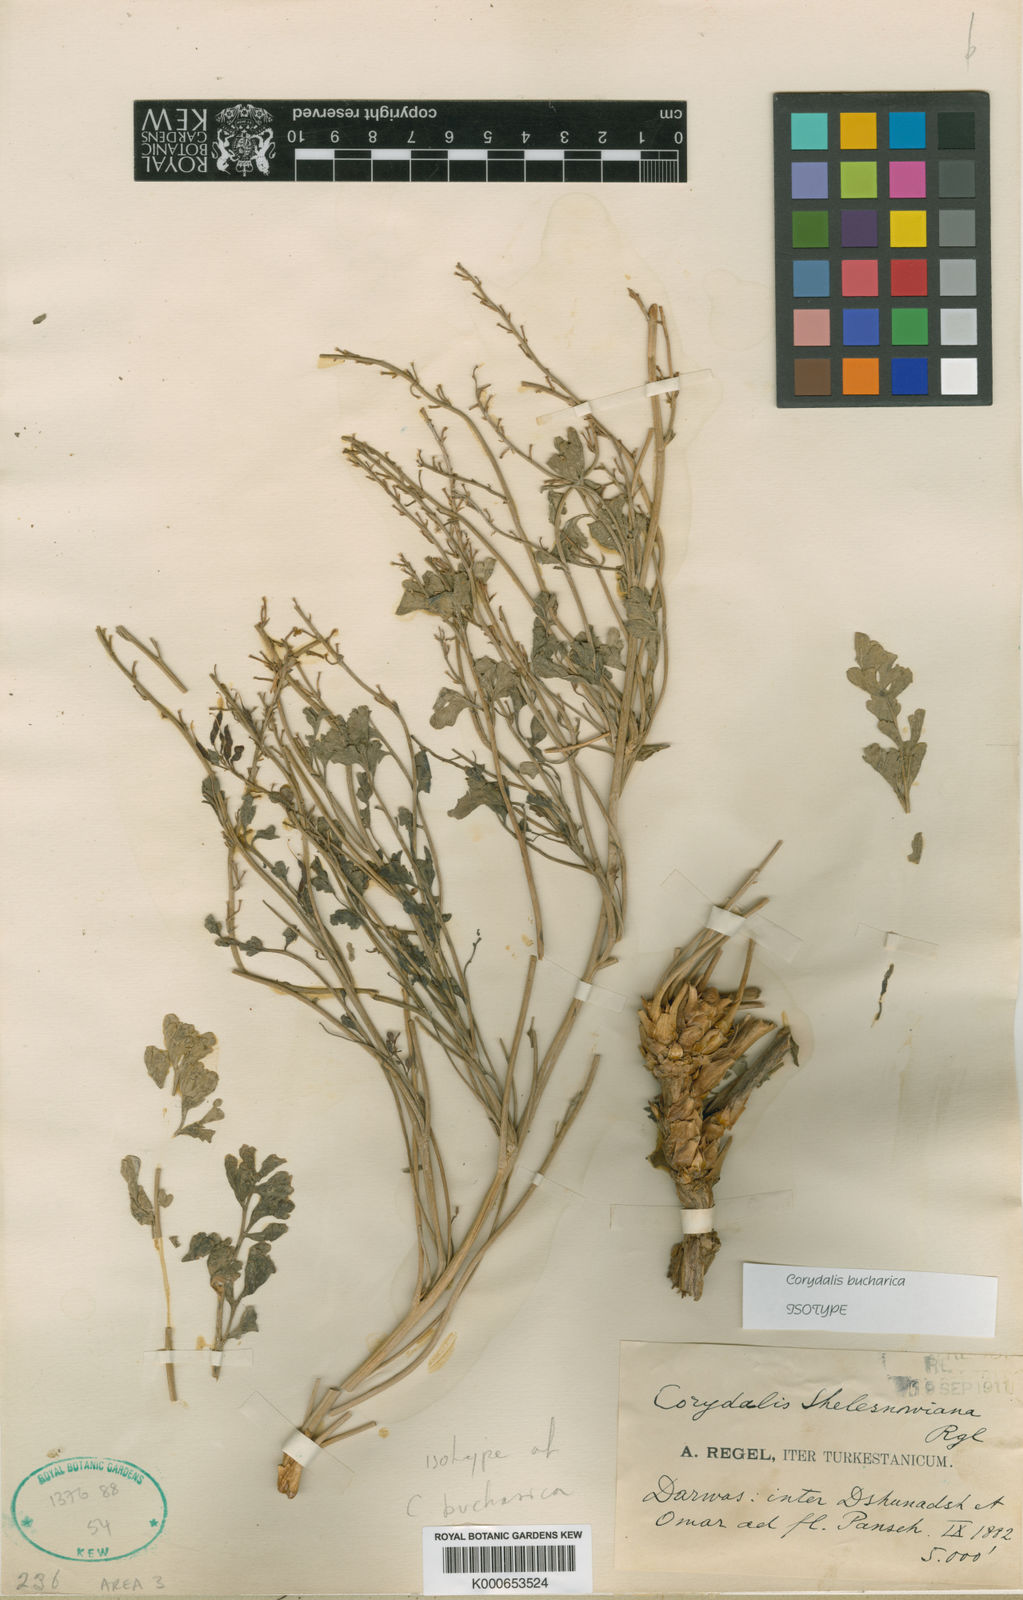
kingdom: Plantae
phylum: Tracheophyta
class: Magnoliopsida
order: Ranunculales
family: Papaveraceae
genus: Corydalis
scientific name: Corydalis schelesnowiana
